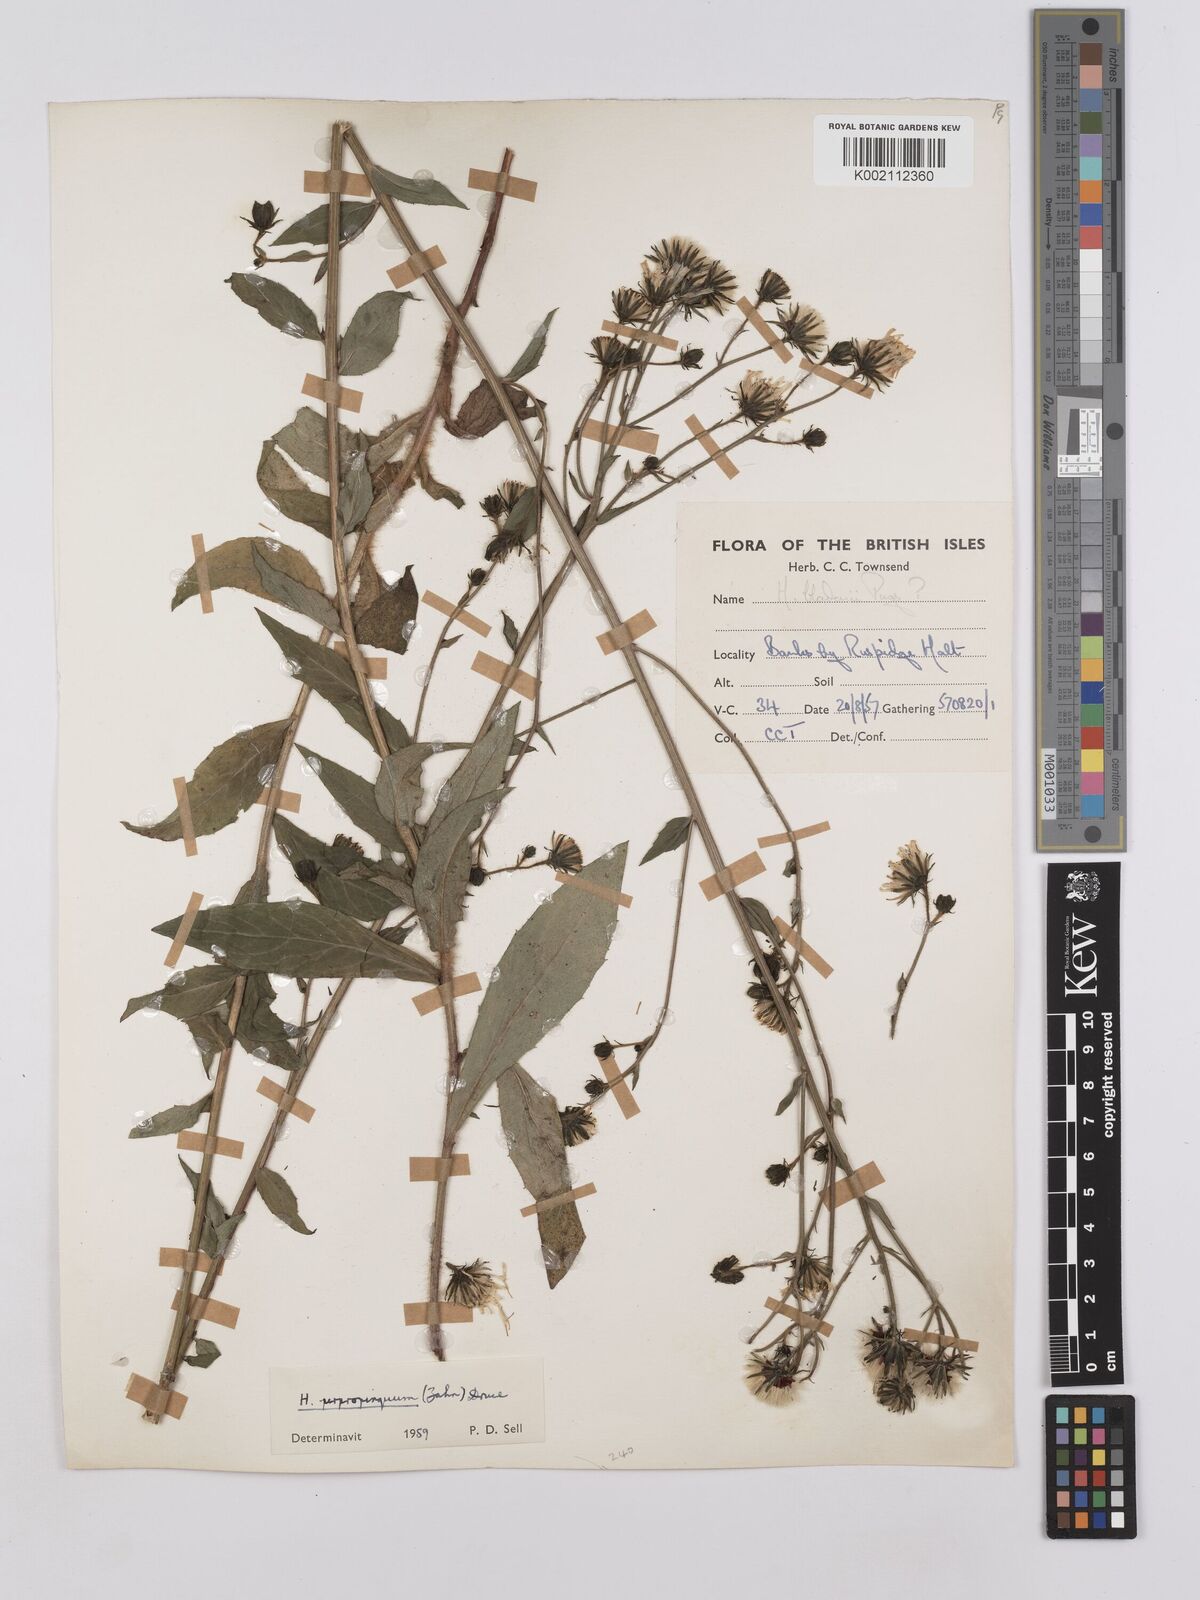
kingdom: Plantae
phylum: Tracheophyta
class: Magnoliopsida
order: Asterales
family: Asteraceae
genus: Hieracium
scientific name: Hieracium sabaudum
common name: New england hawkweed
